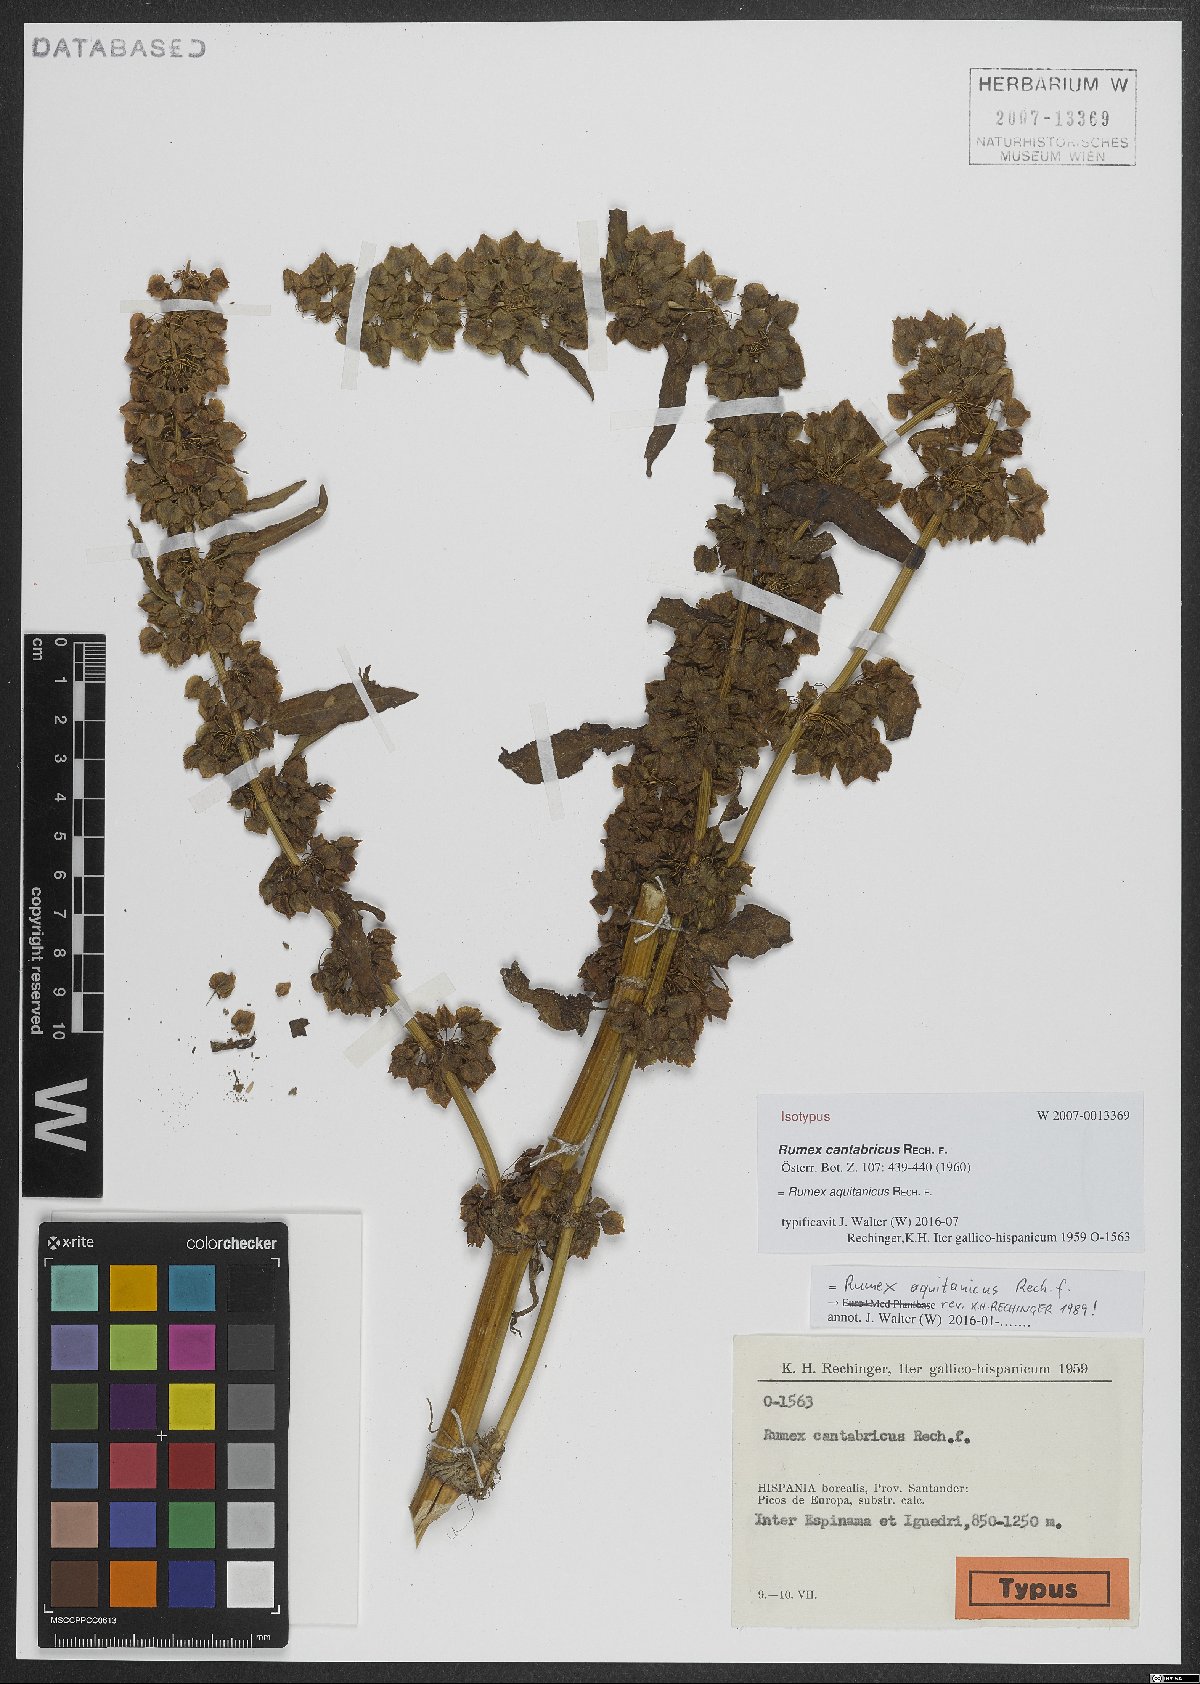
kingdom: Plantae
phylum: Tracheophyta
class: Magnoliopsida
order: Caryophyllales
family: Polygonaceae
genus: Rumex
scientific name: Rumex aquitanicus
